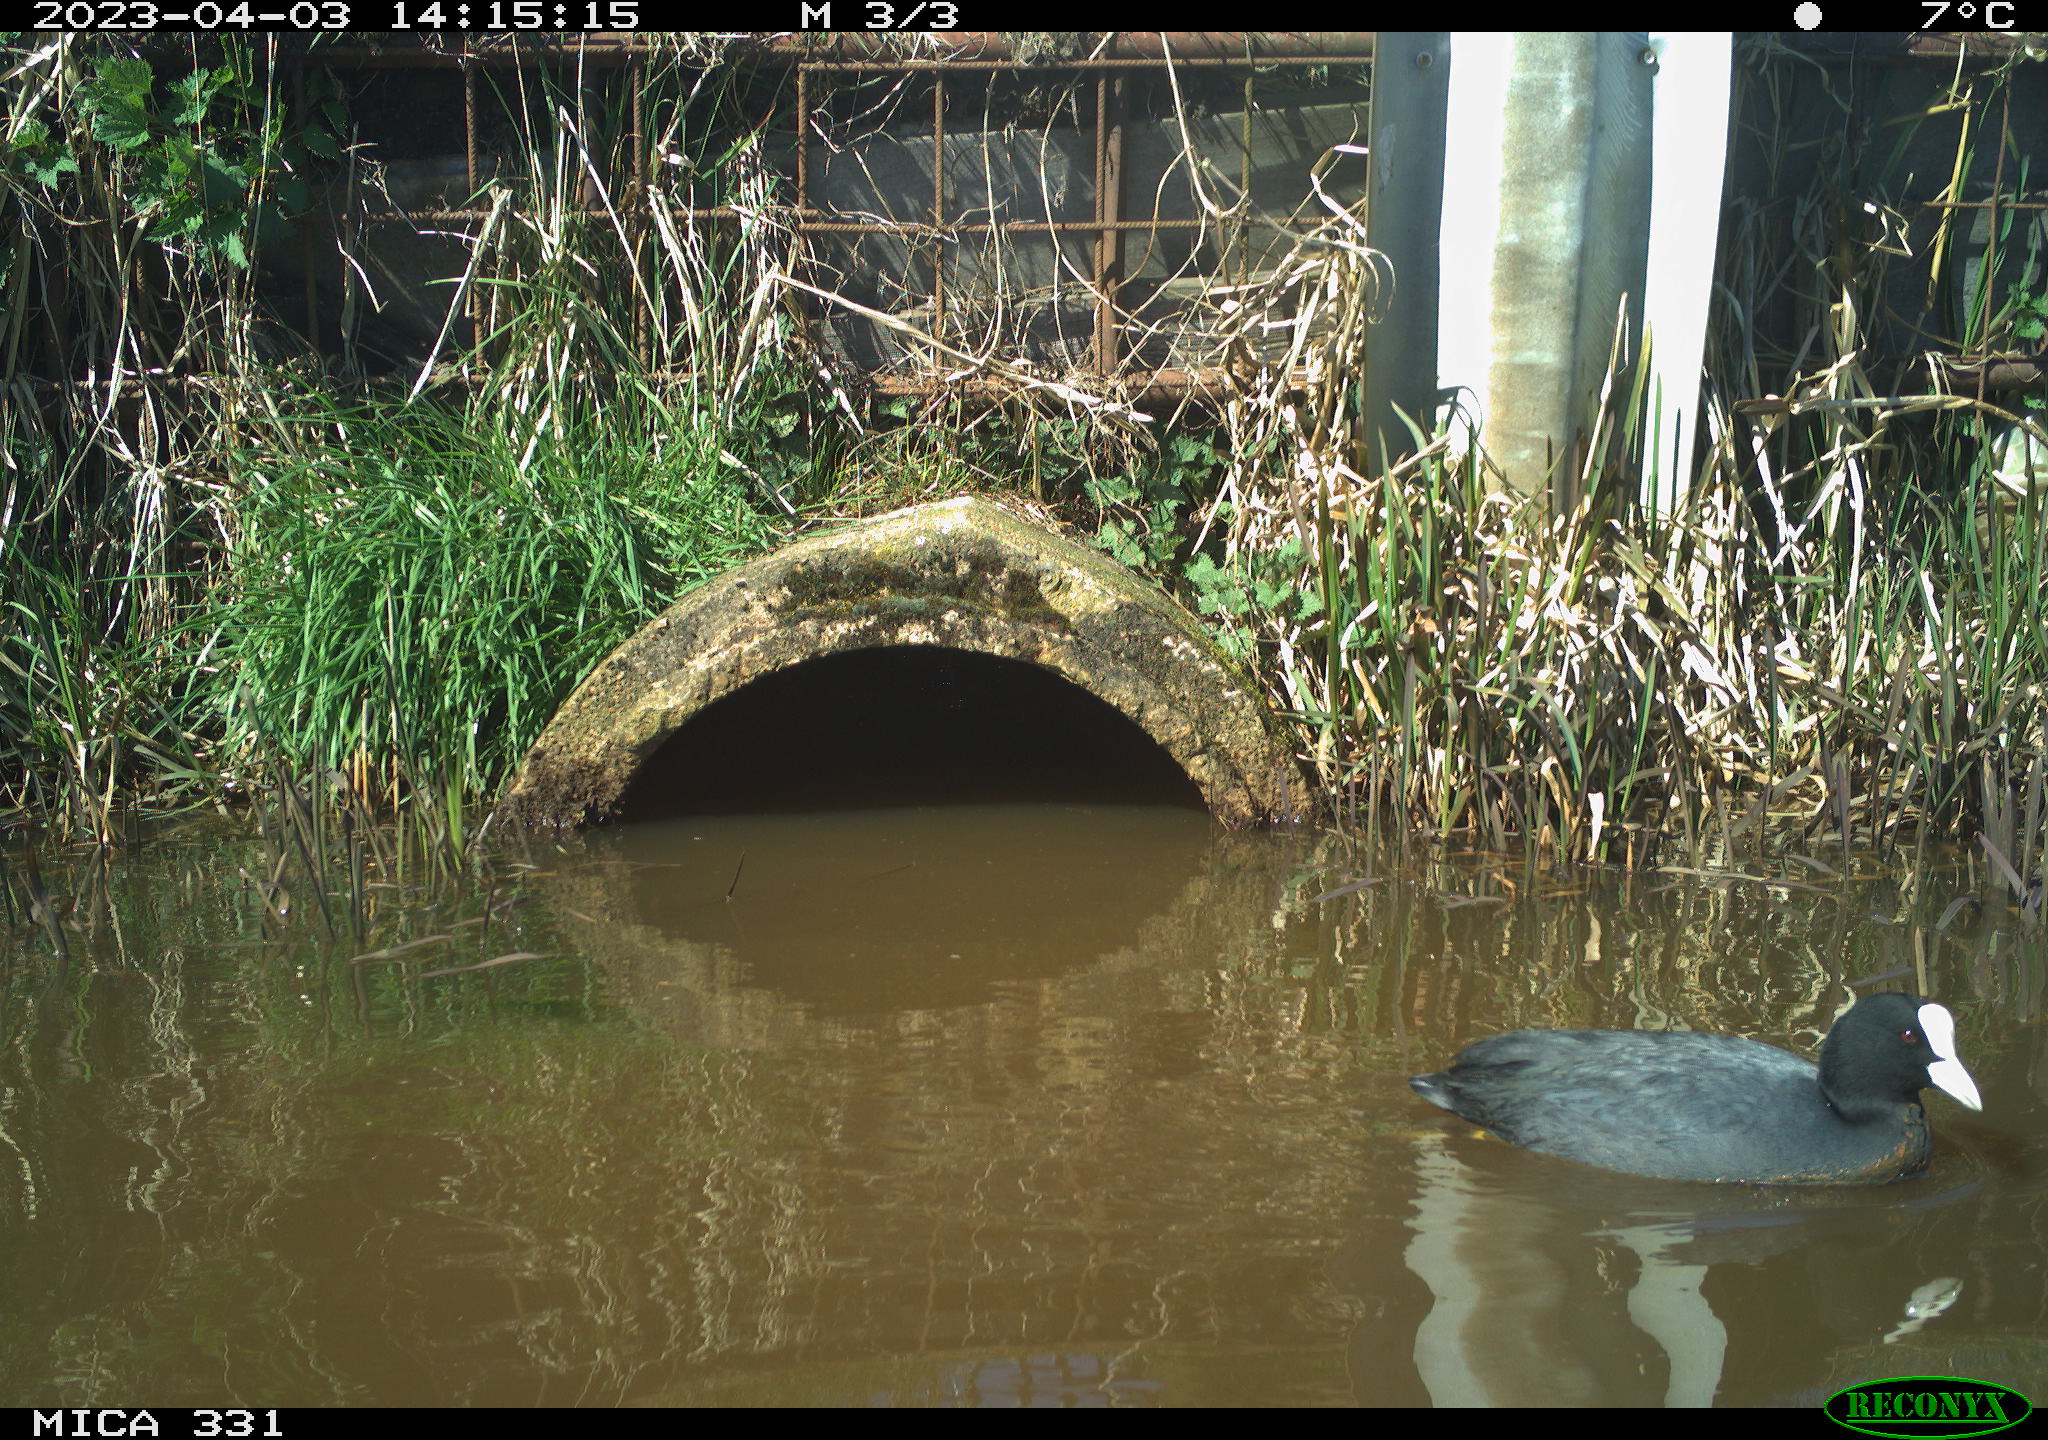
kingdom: Animalia
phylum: Chordata
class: Aves
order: Gruiformes
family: Rallidae
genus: Fulica
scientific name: Fulica atra
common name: Eurasian coot
